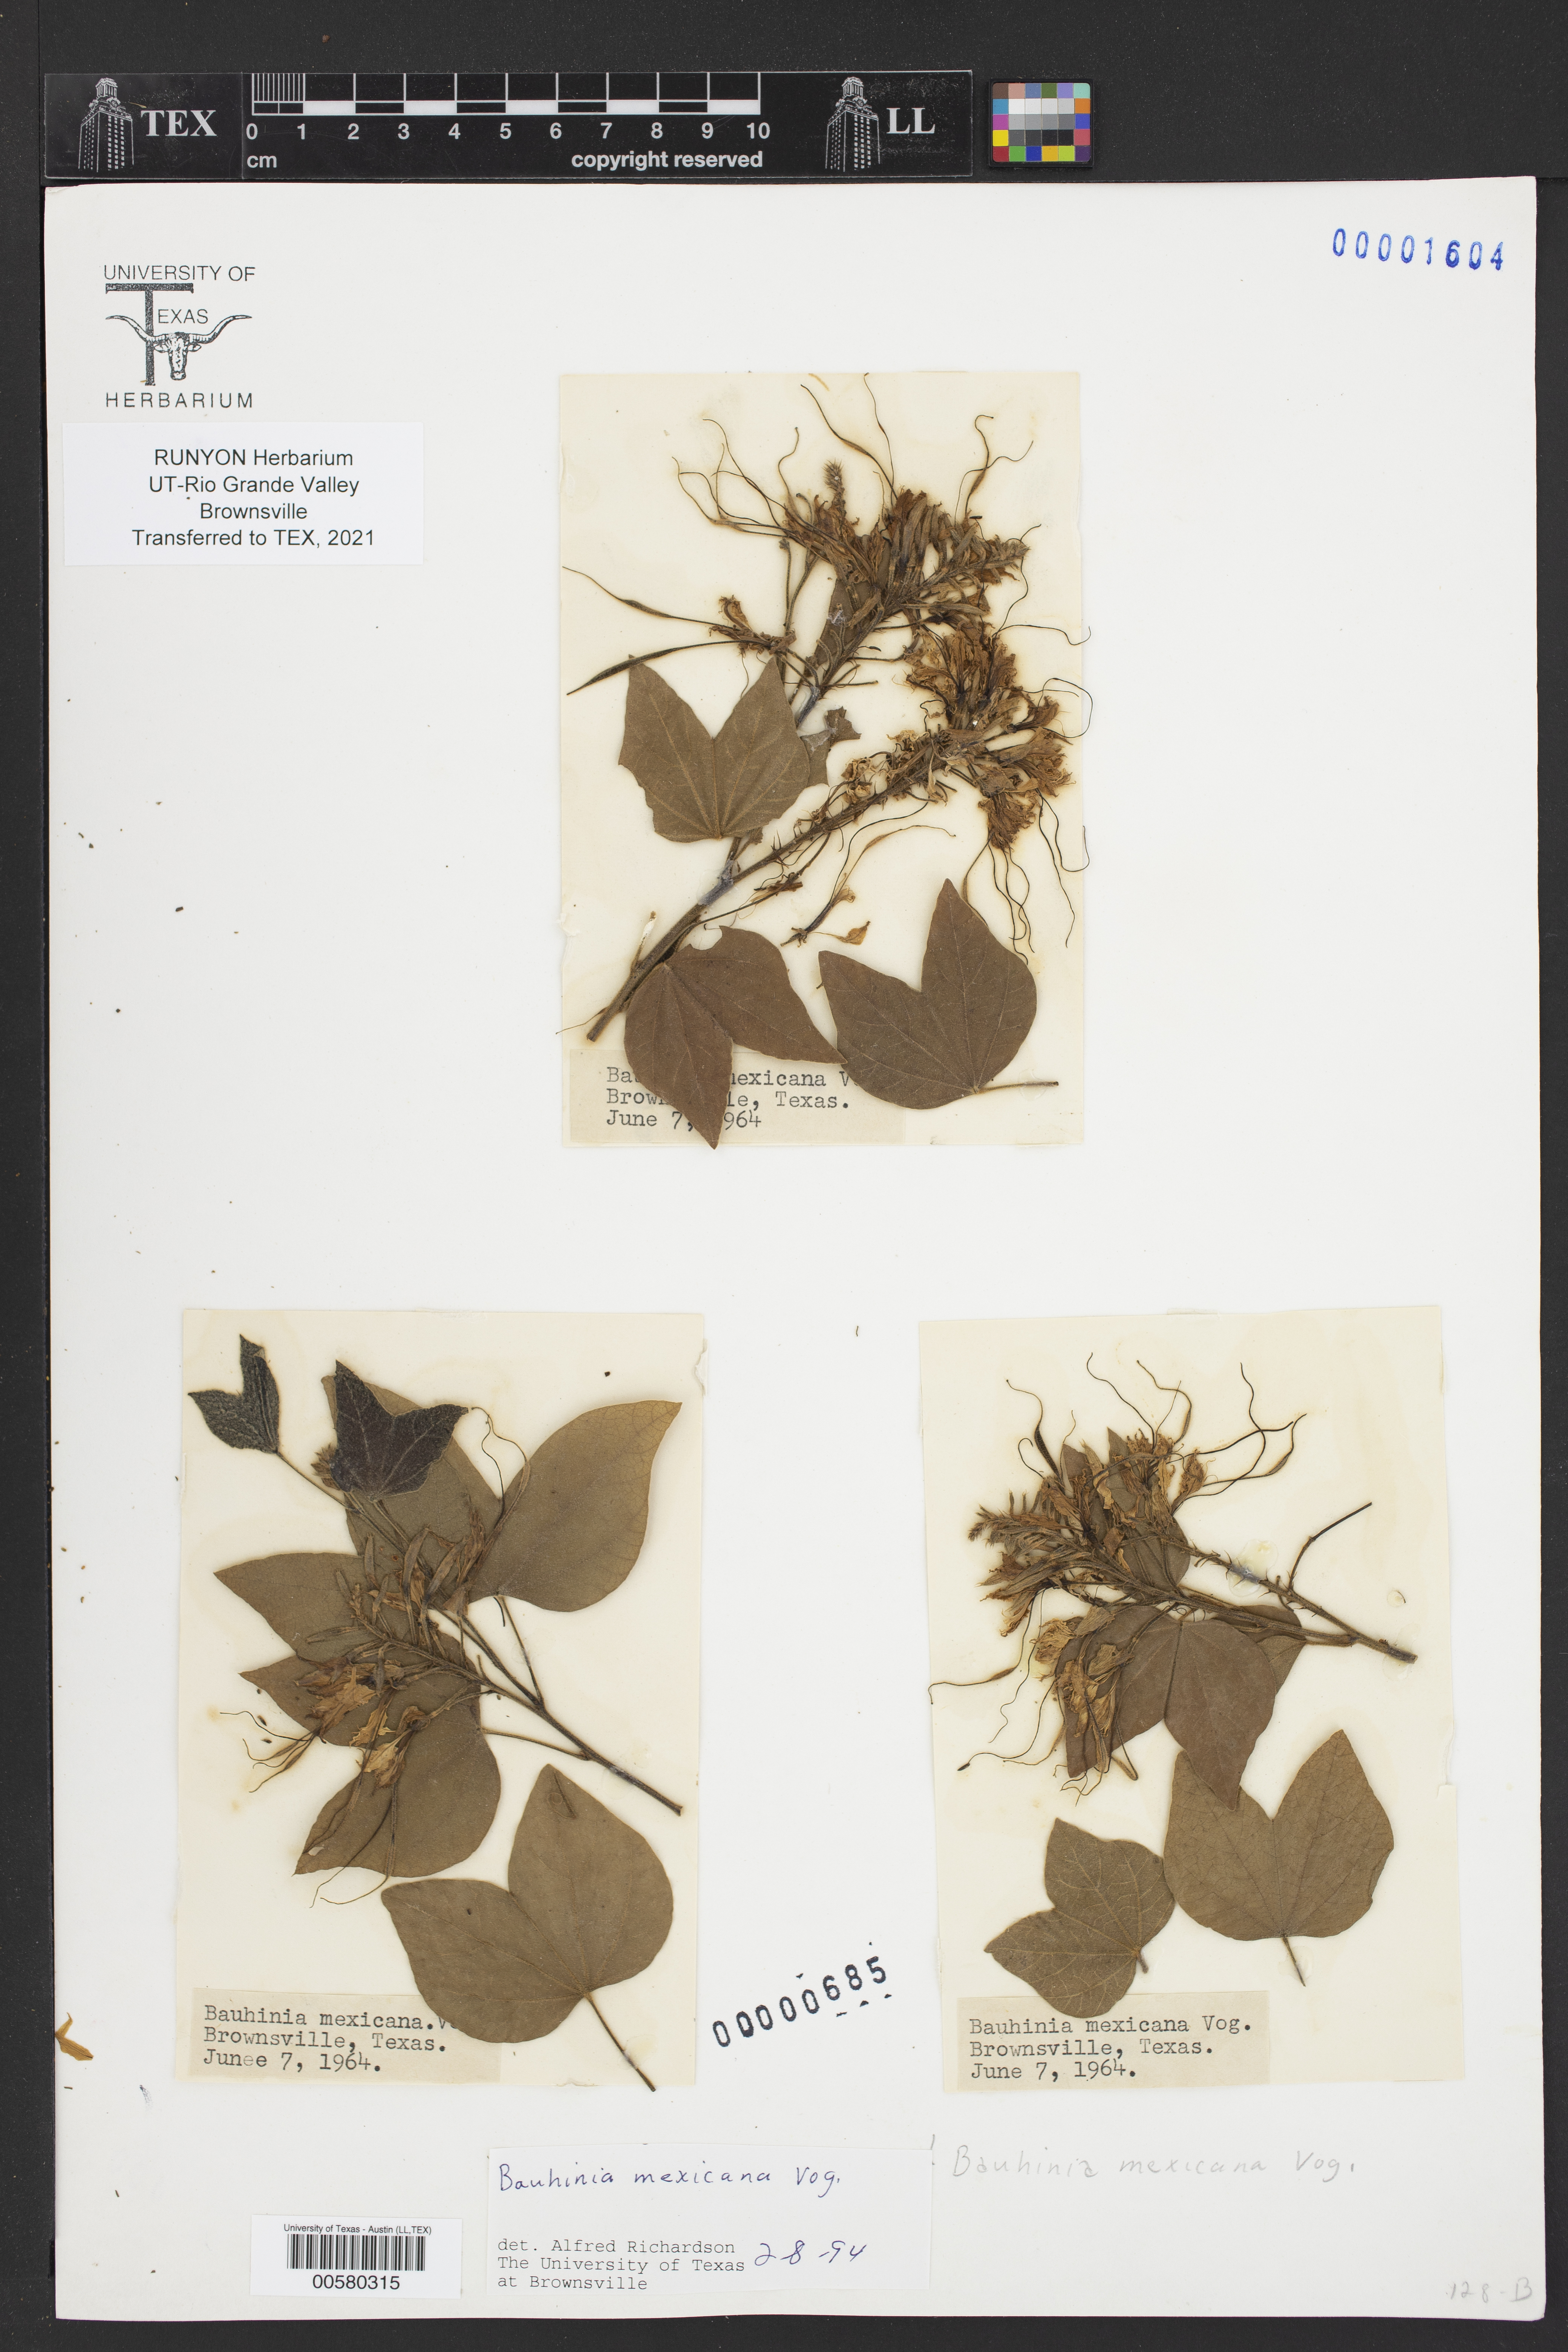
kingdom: Plantae
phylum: Tracheophyta
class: Magnoliopsida
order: Fabales
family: Fabaceae
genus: Bauhinia
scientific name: Bauhinia divaricata
